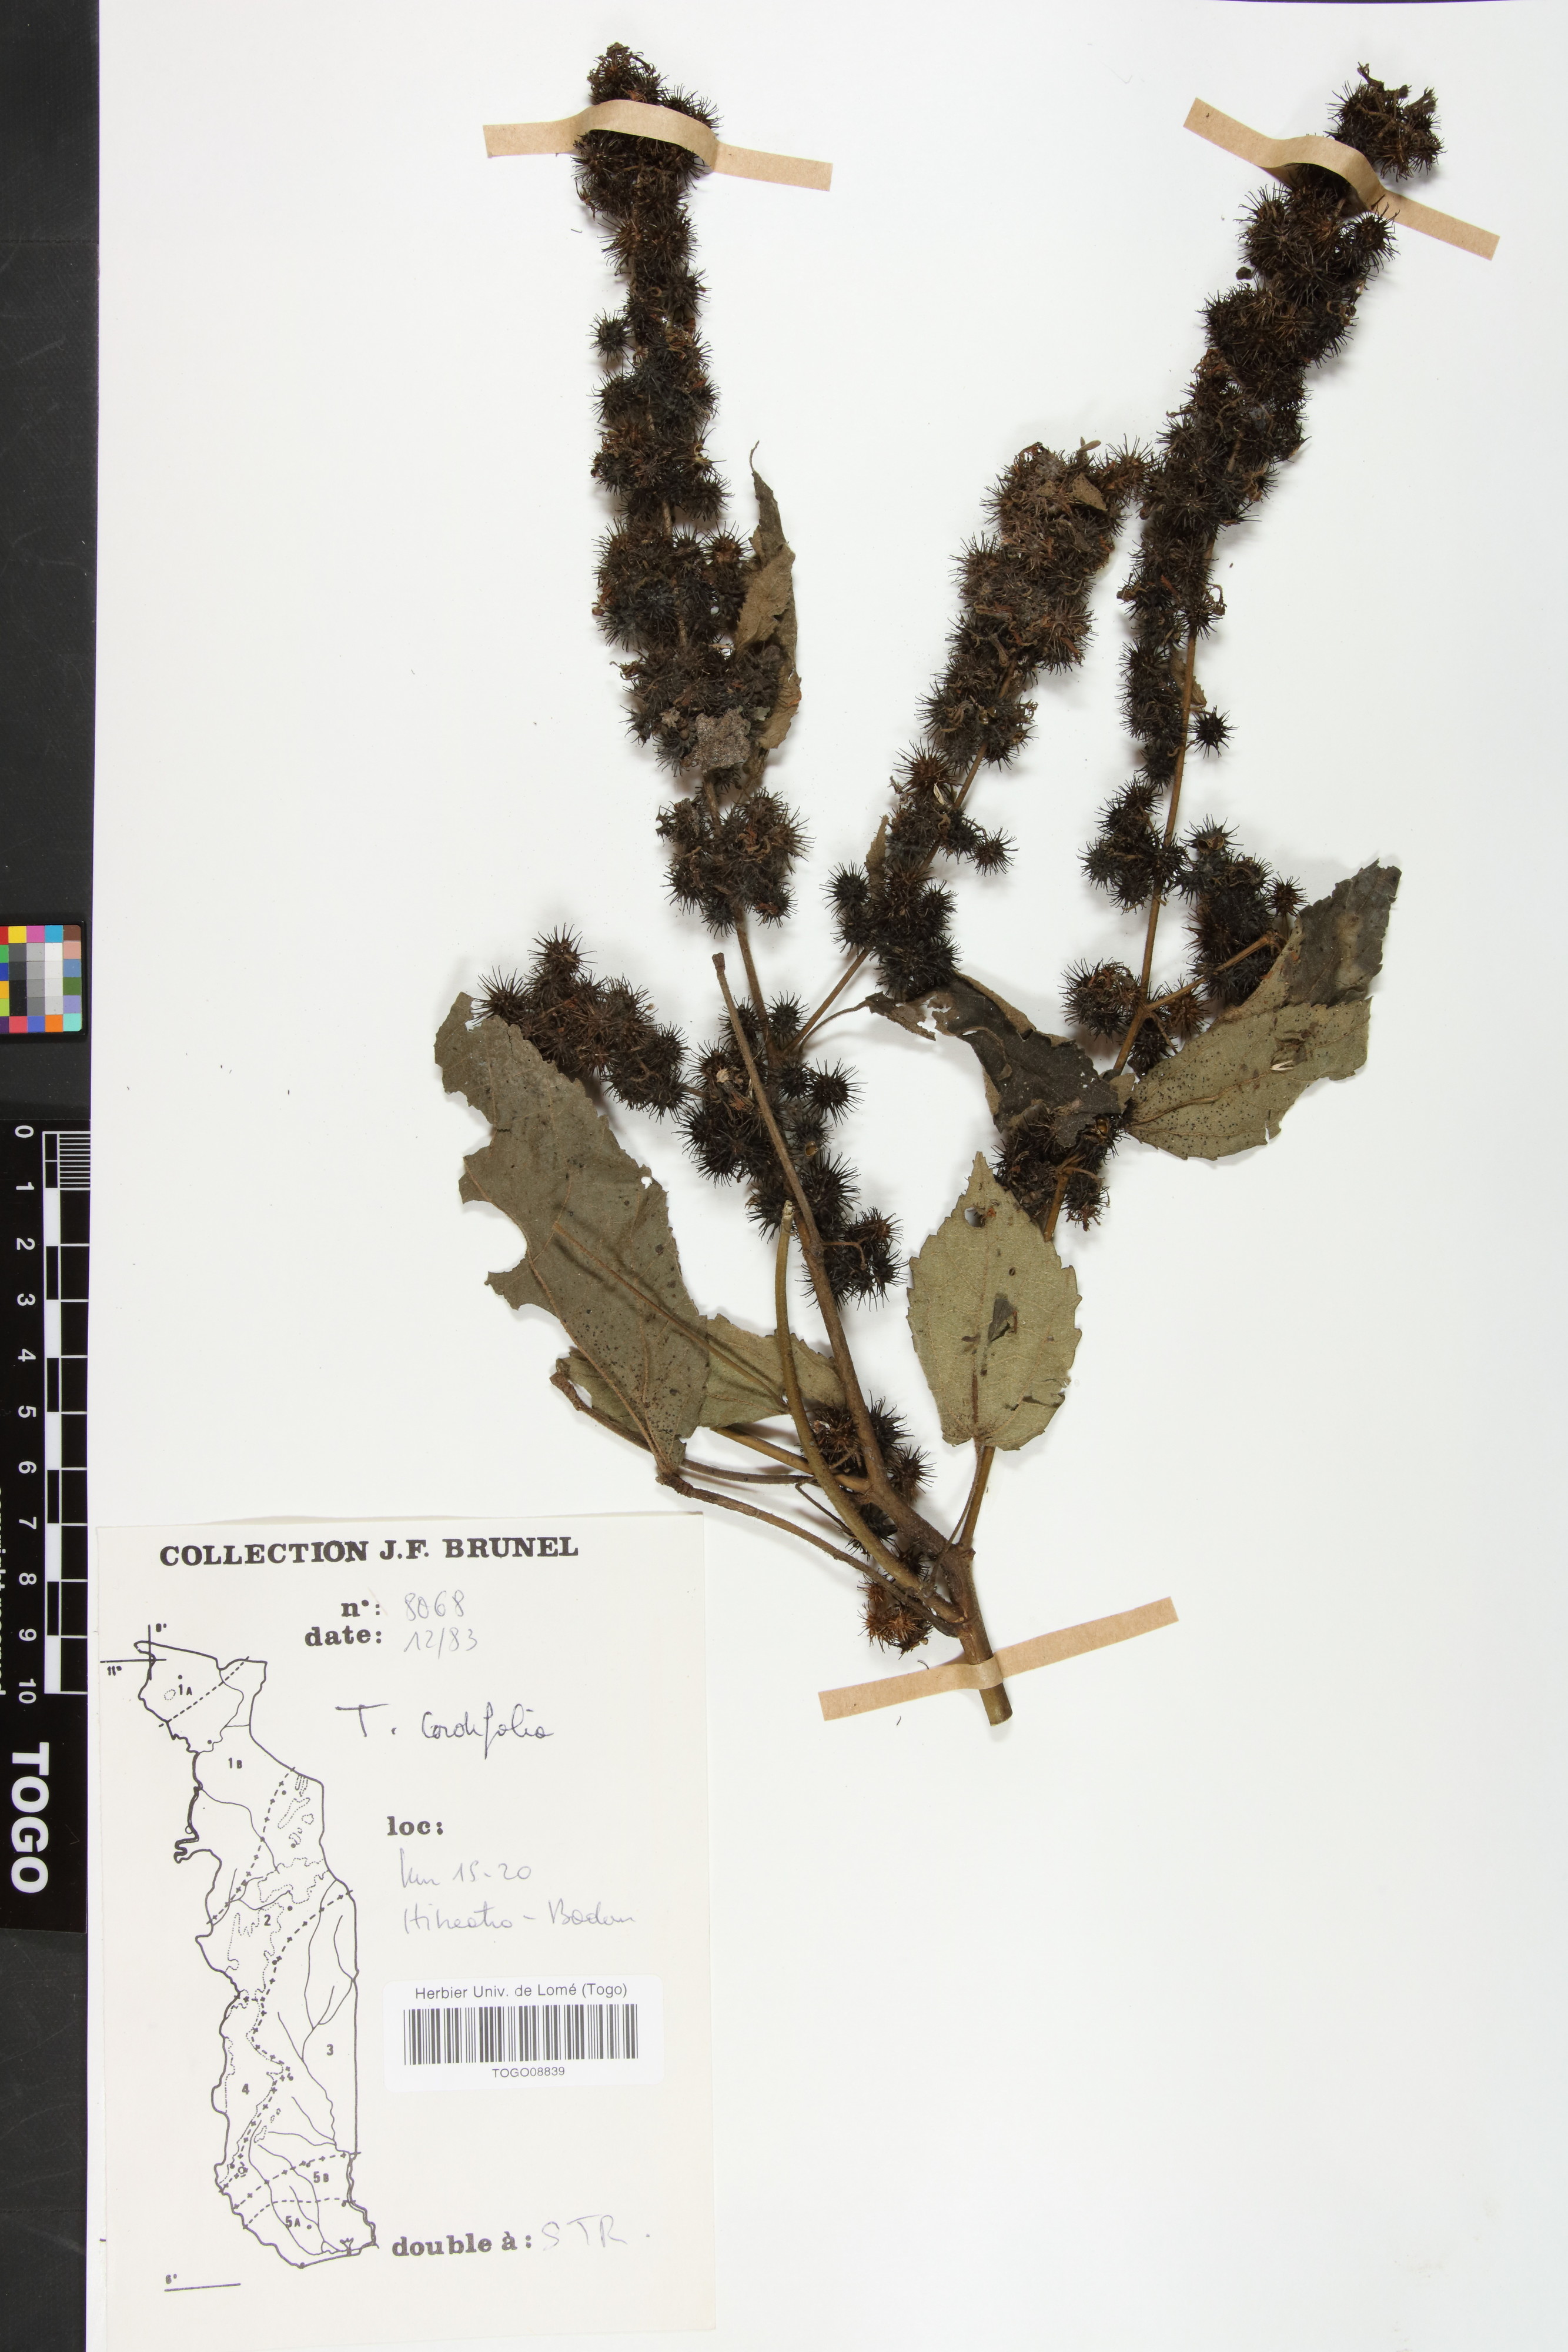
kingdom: Plantae
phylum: Tracheophyta
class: Magnoliopsida
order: Malvales
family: Malvaceae
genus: Triumfetta
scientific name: Triumfetta cordifolia
